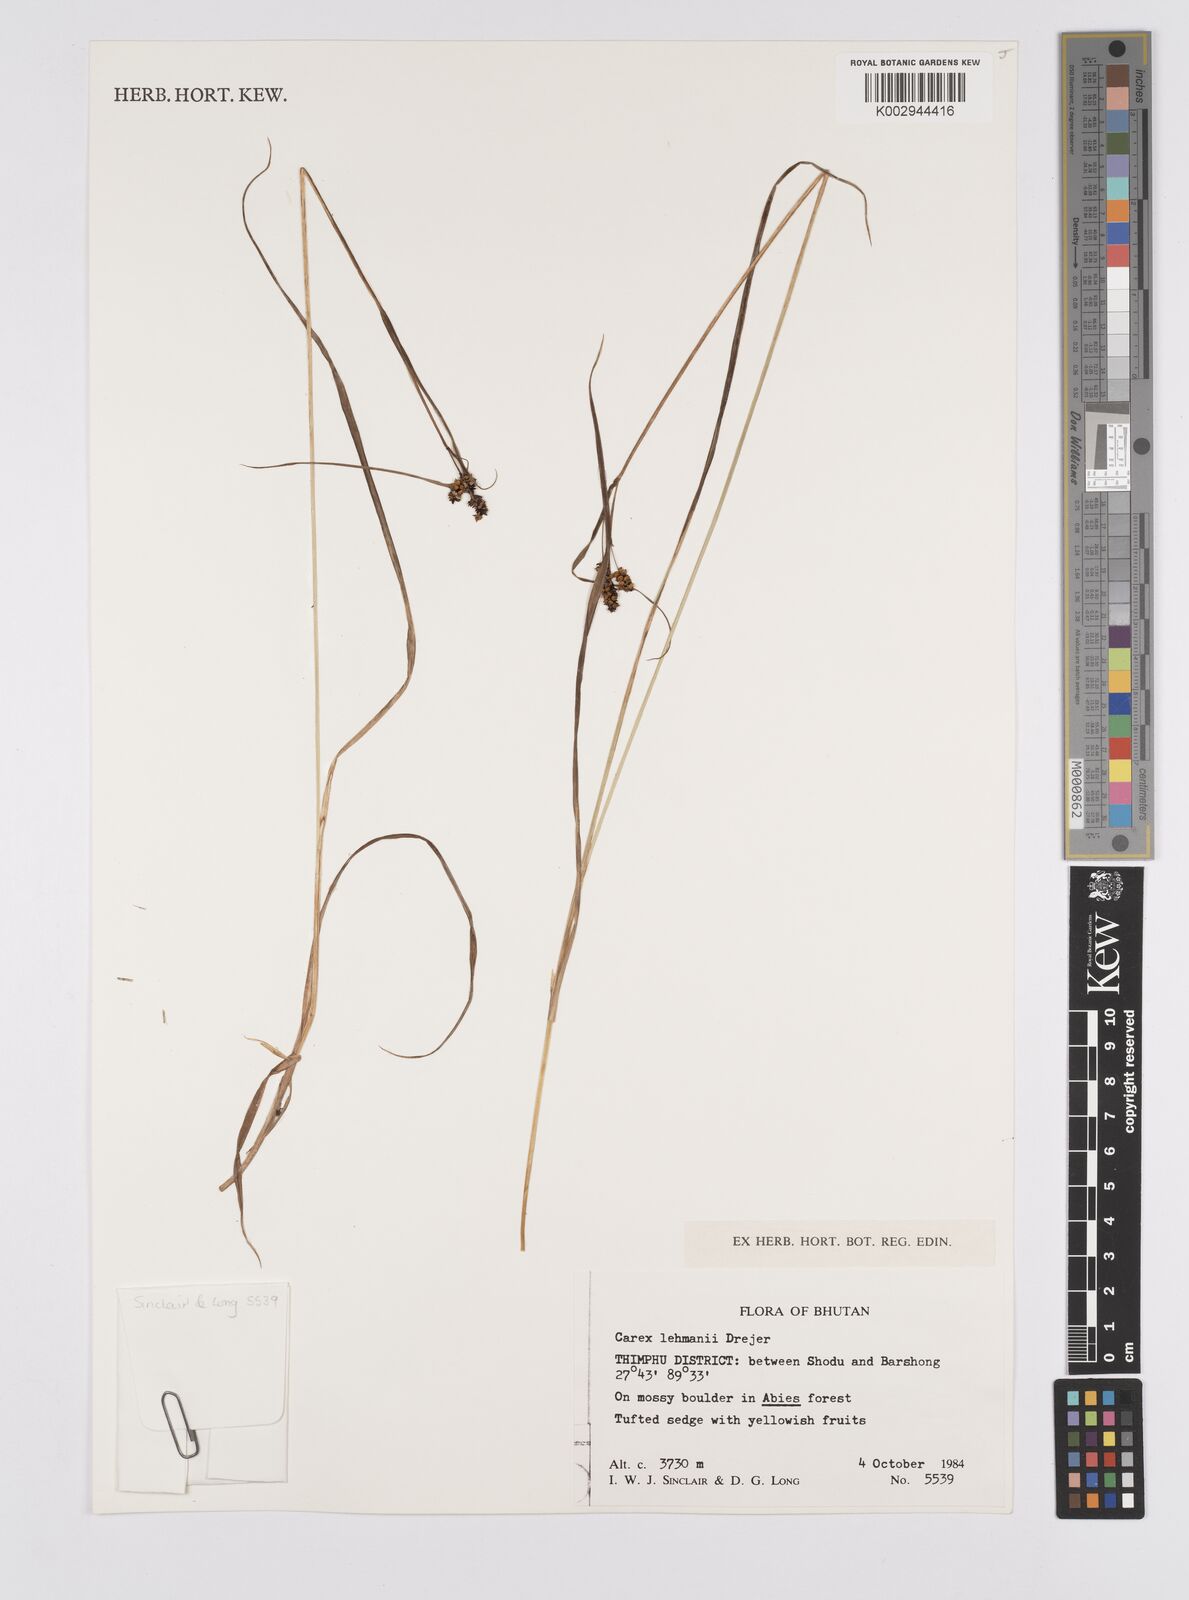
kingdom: Plantae
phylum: Tracheophyta
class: Liliopsida
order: Poales
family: Cyperaceae
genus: Carex
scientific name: Carex lehmannii
